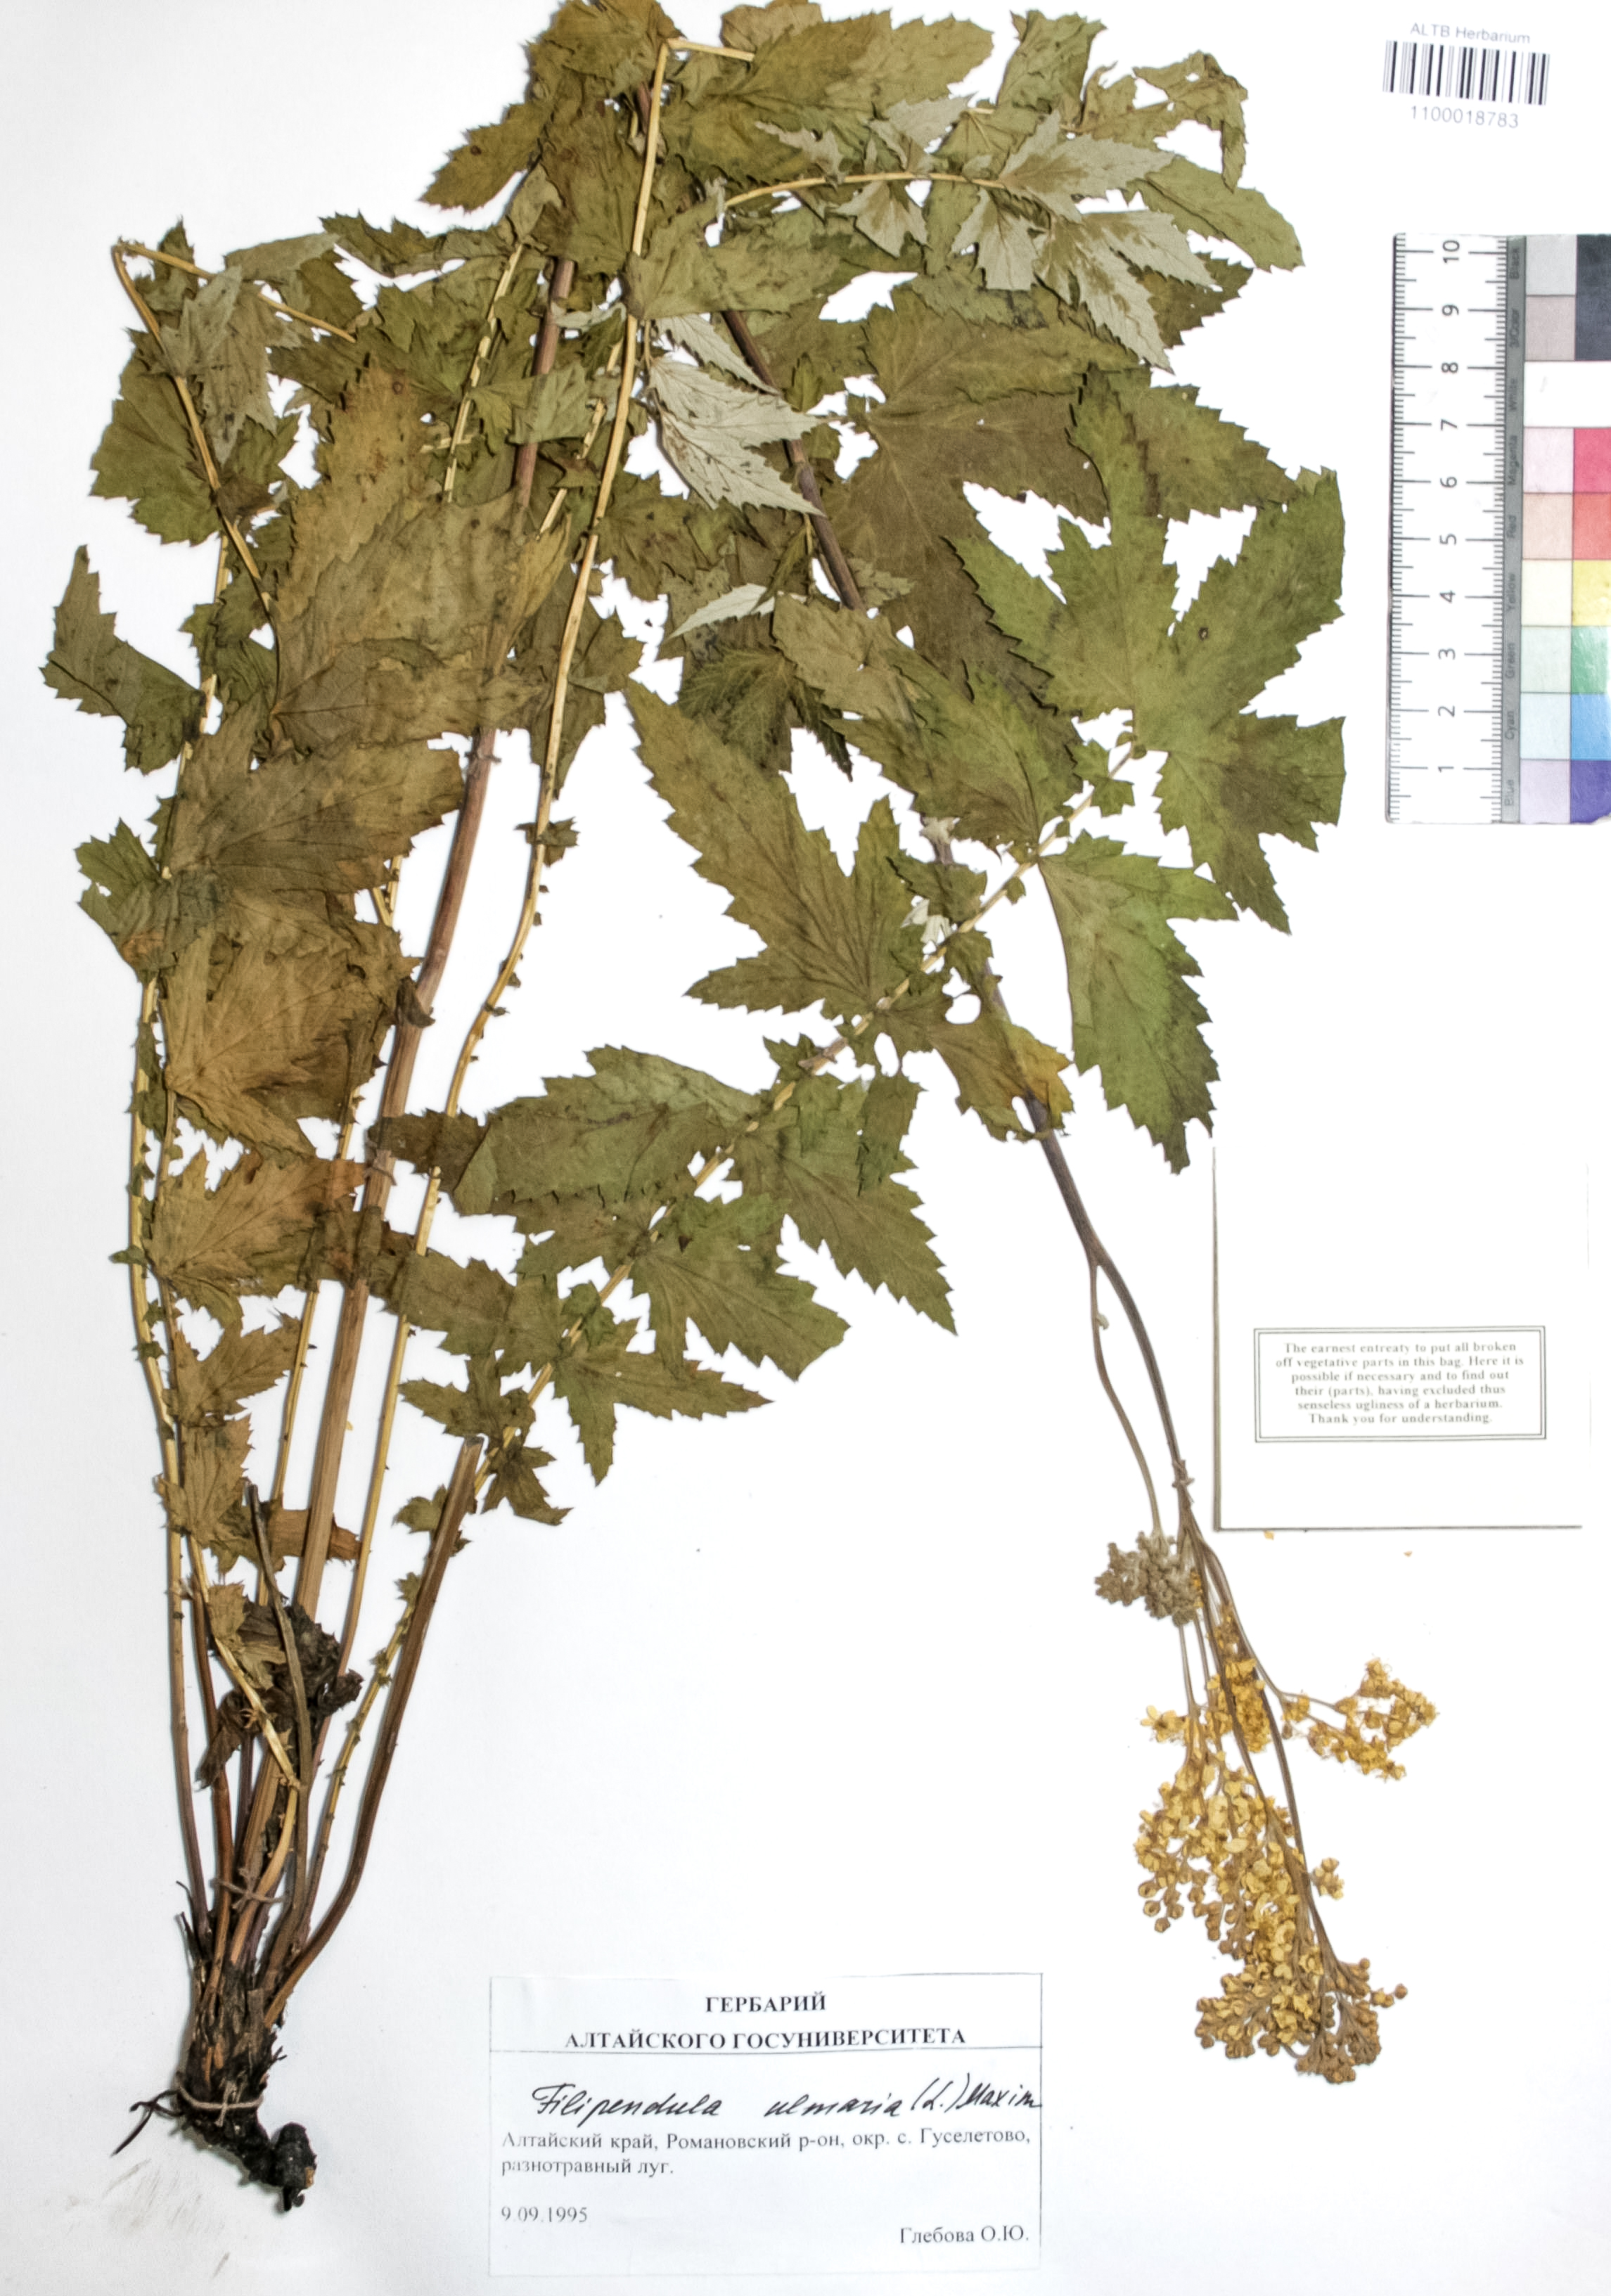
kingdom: Plantae
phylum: Tracheophyta
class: Magnoliopsida
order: Rosales
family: Rosaceae
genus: Filipendula
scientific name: Filipendula ulmaria
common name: Meadowsweet
